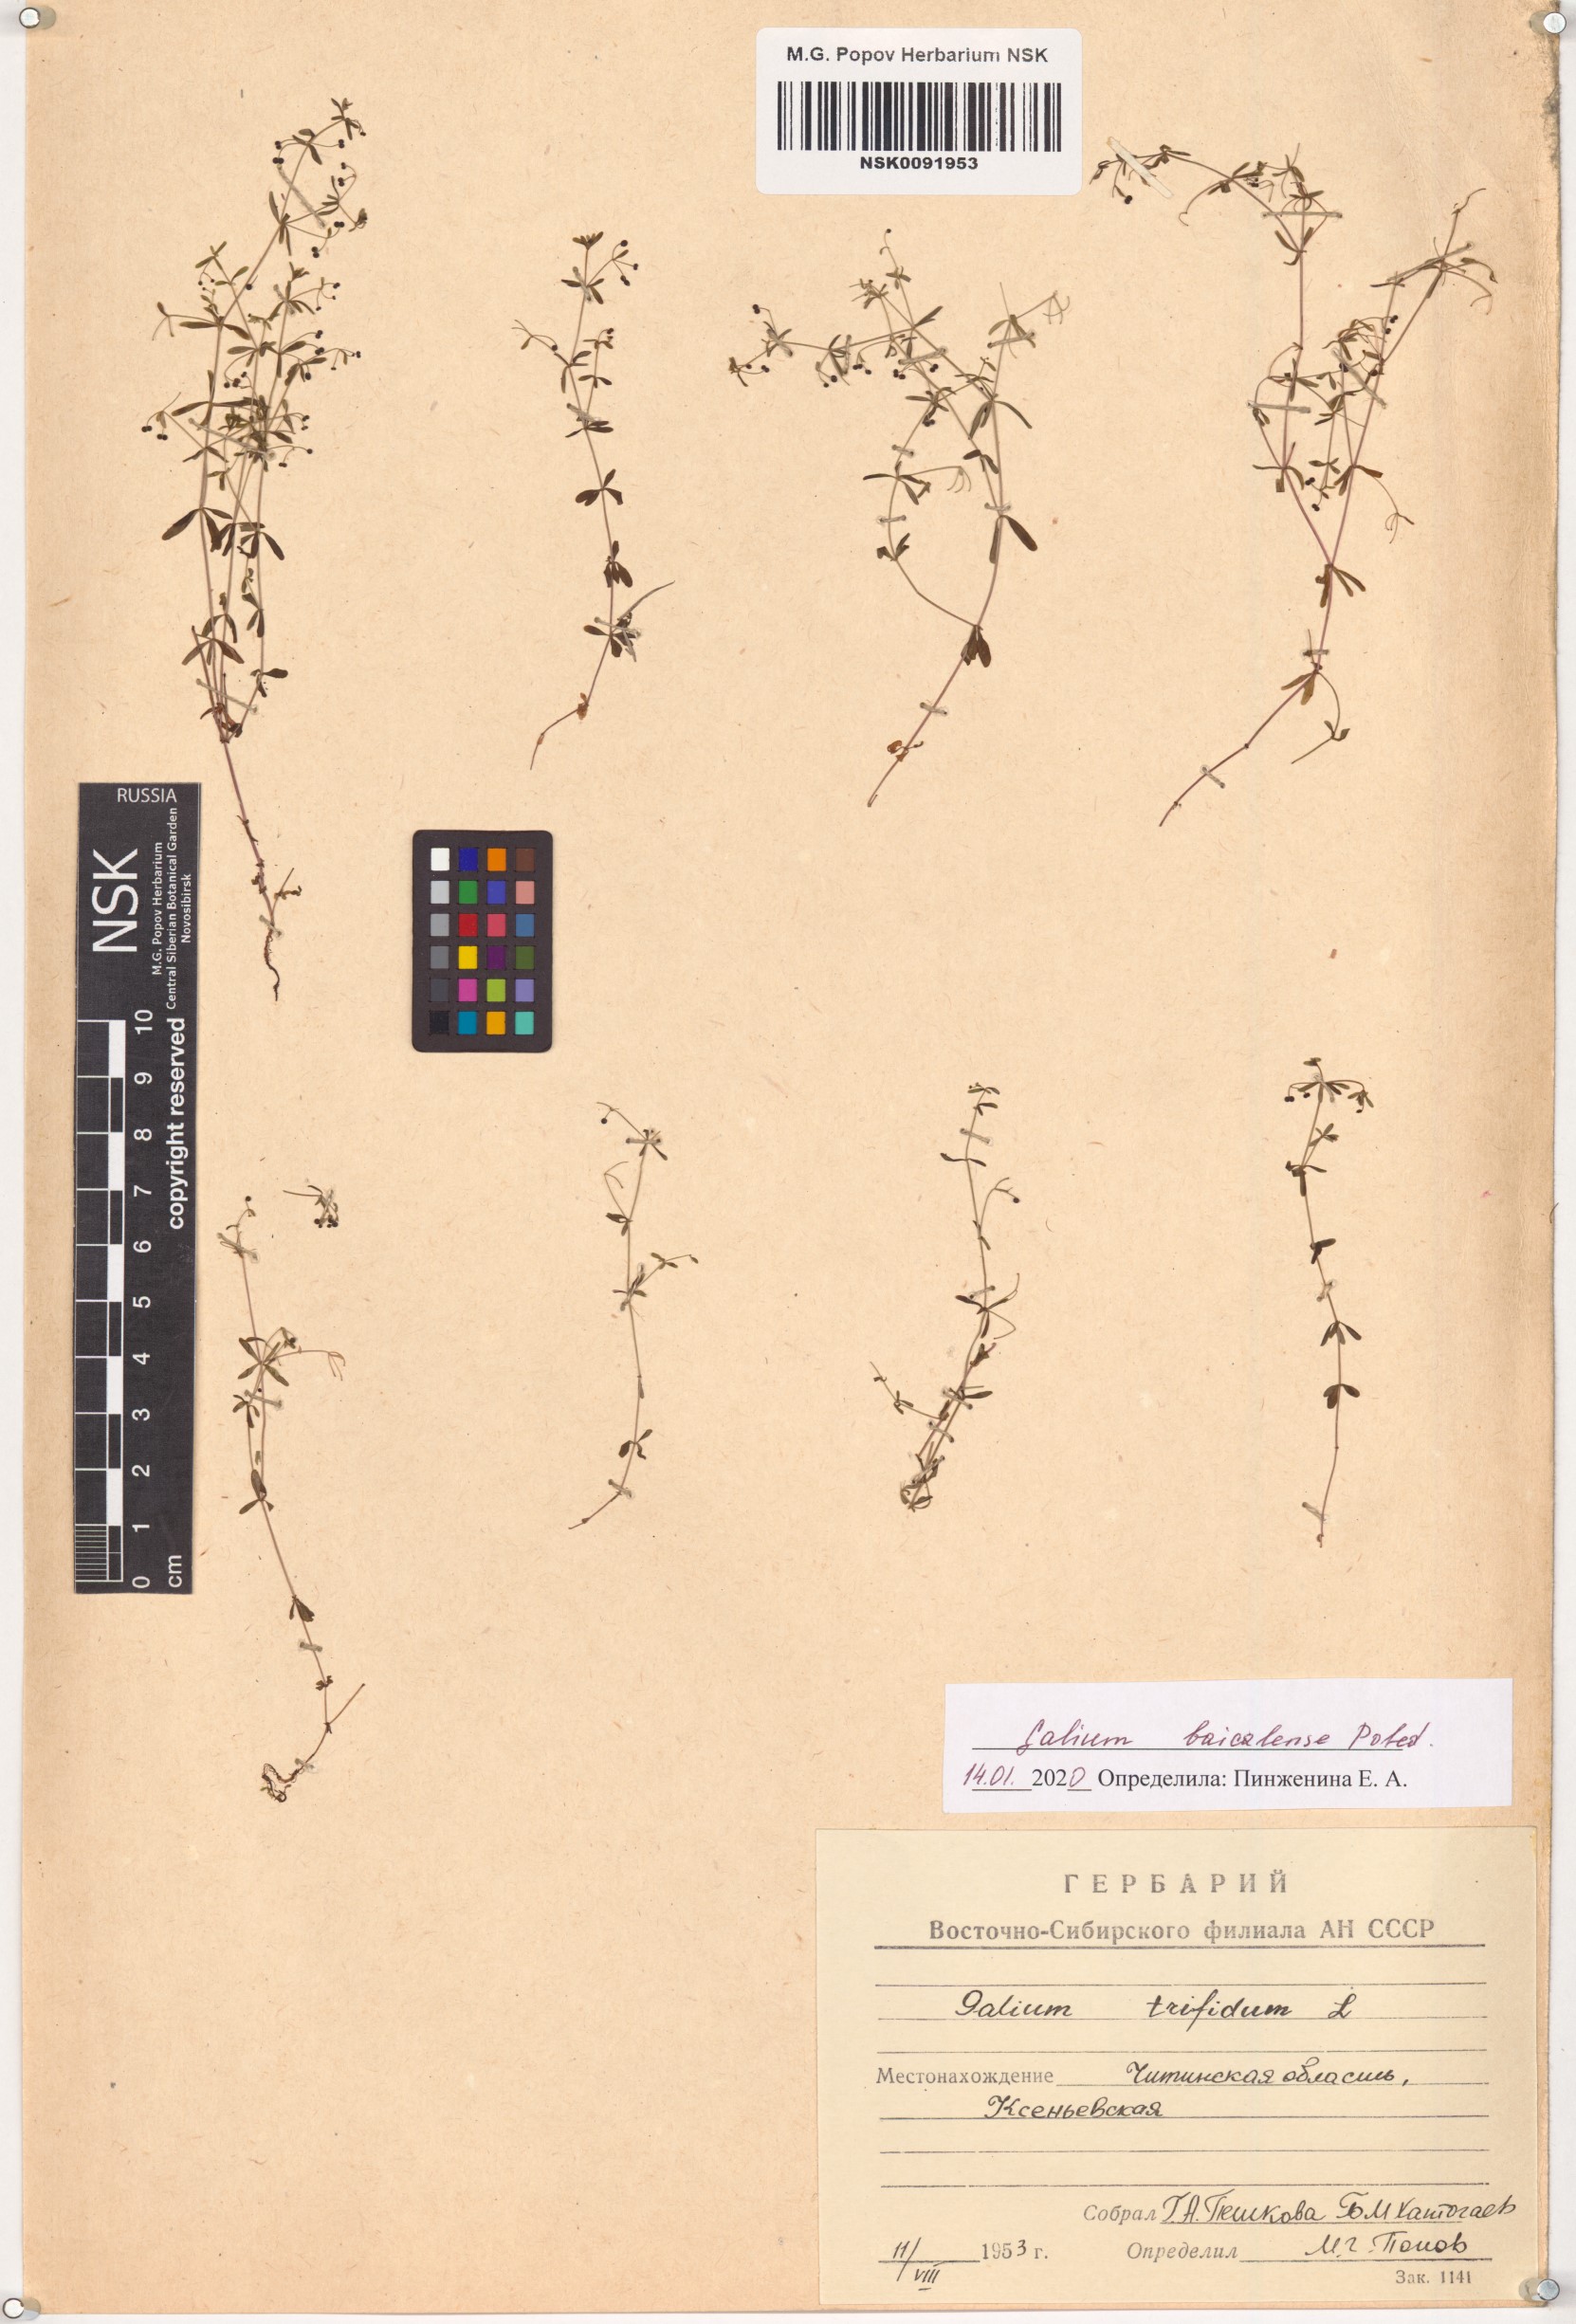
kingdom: Plantae
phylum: Tracheophyta
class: Magnoliopsida
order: Gentianales
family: Rubiaceae
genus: Galium
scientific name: Galium trifidum
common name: Small bedstraw
